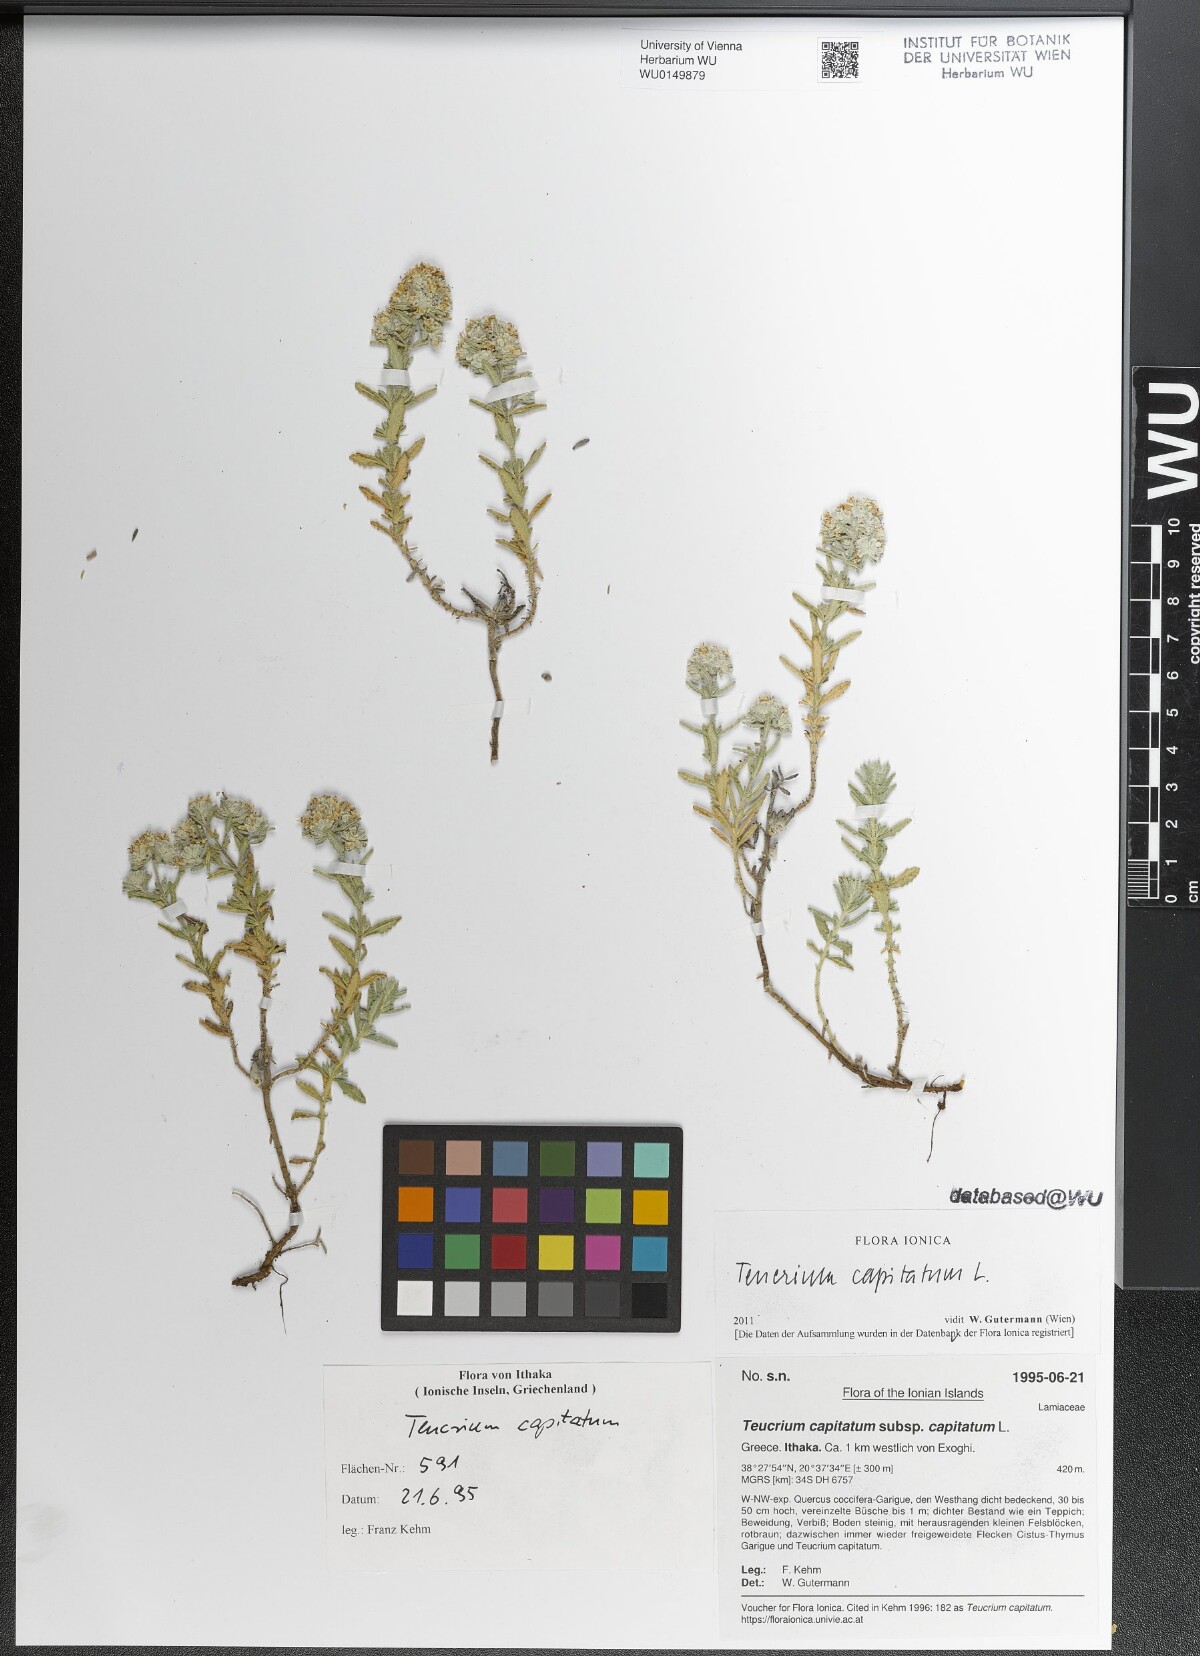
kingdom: Plantae
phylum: Tracheophyta
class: Magnoliopsida
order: Lamiales
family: Lamiaceae
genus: Teucrium
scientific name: Teucrium capitatum
